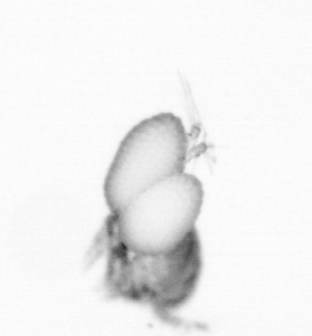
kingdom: Animalia
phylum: Arthropoda
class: Copepoda
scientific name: Copepoda
